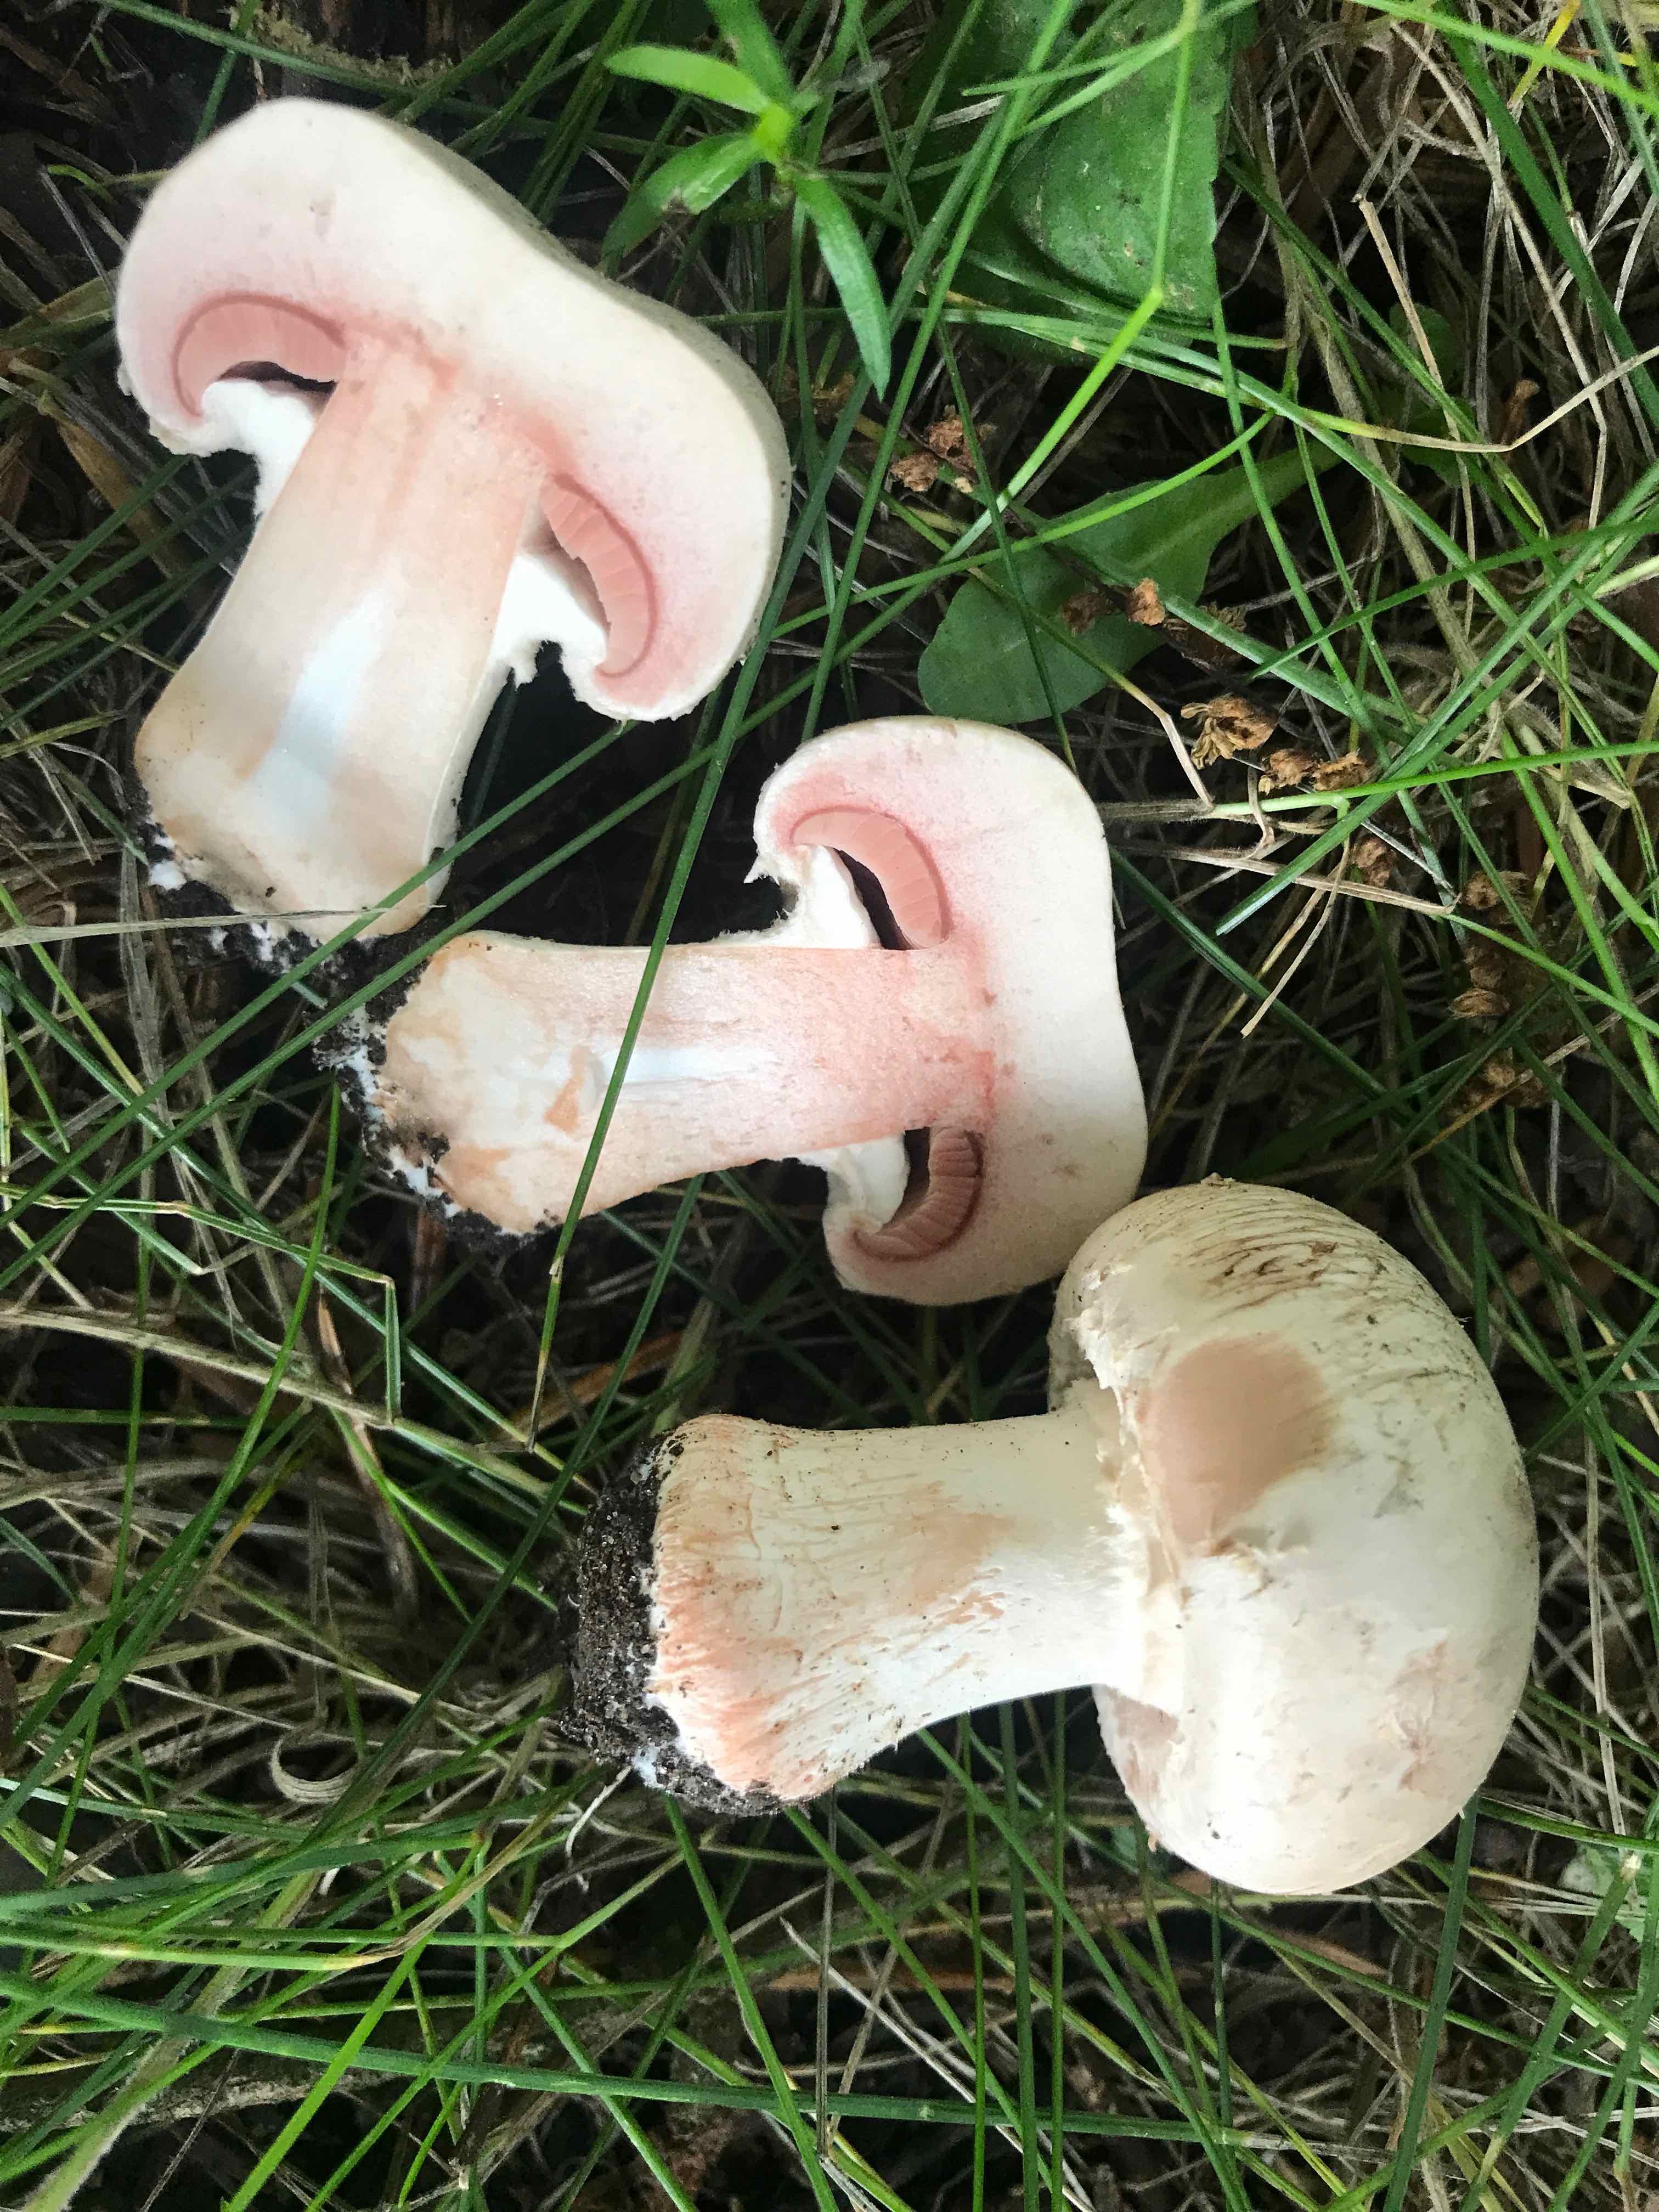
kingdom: Fungi
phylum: Basidiomycota
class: Agaricomycetes
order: Agaricales
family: Agaricaceae
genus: Agaricus
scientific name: Agaricus
